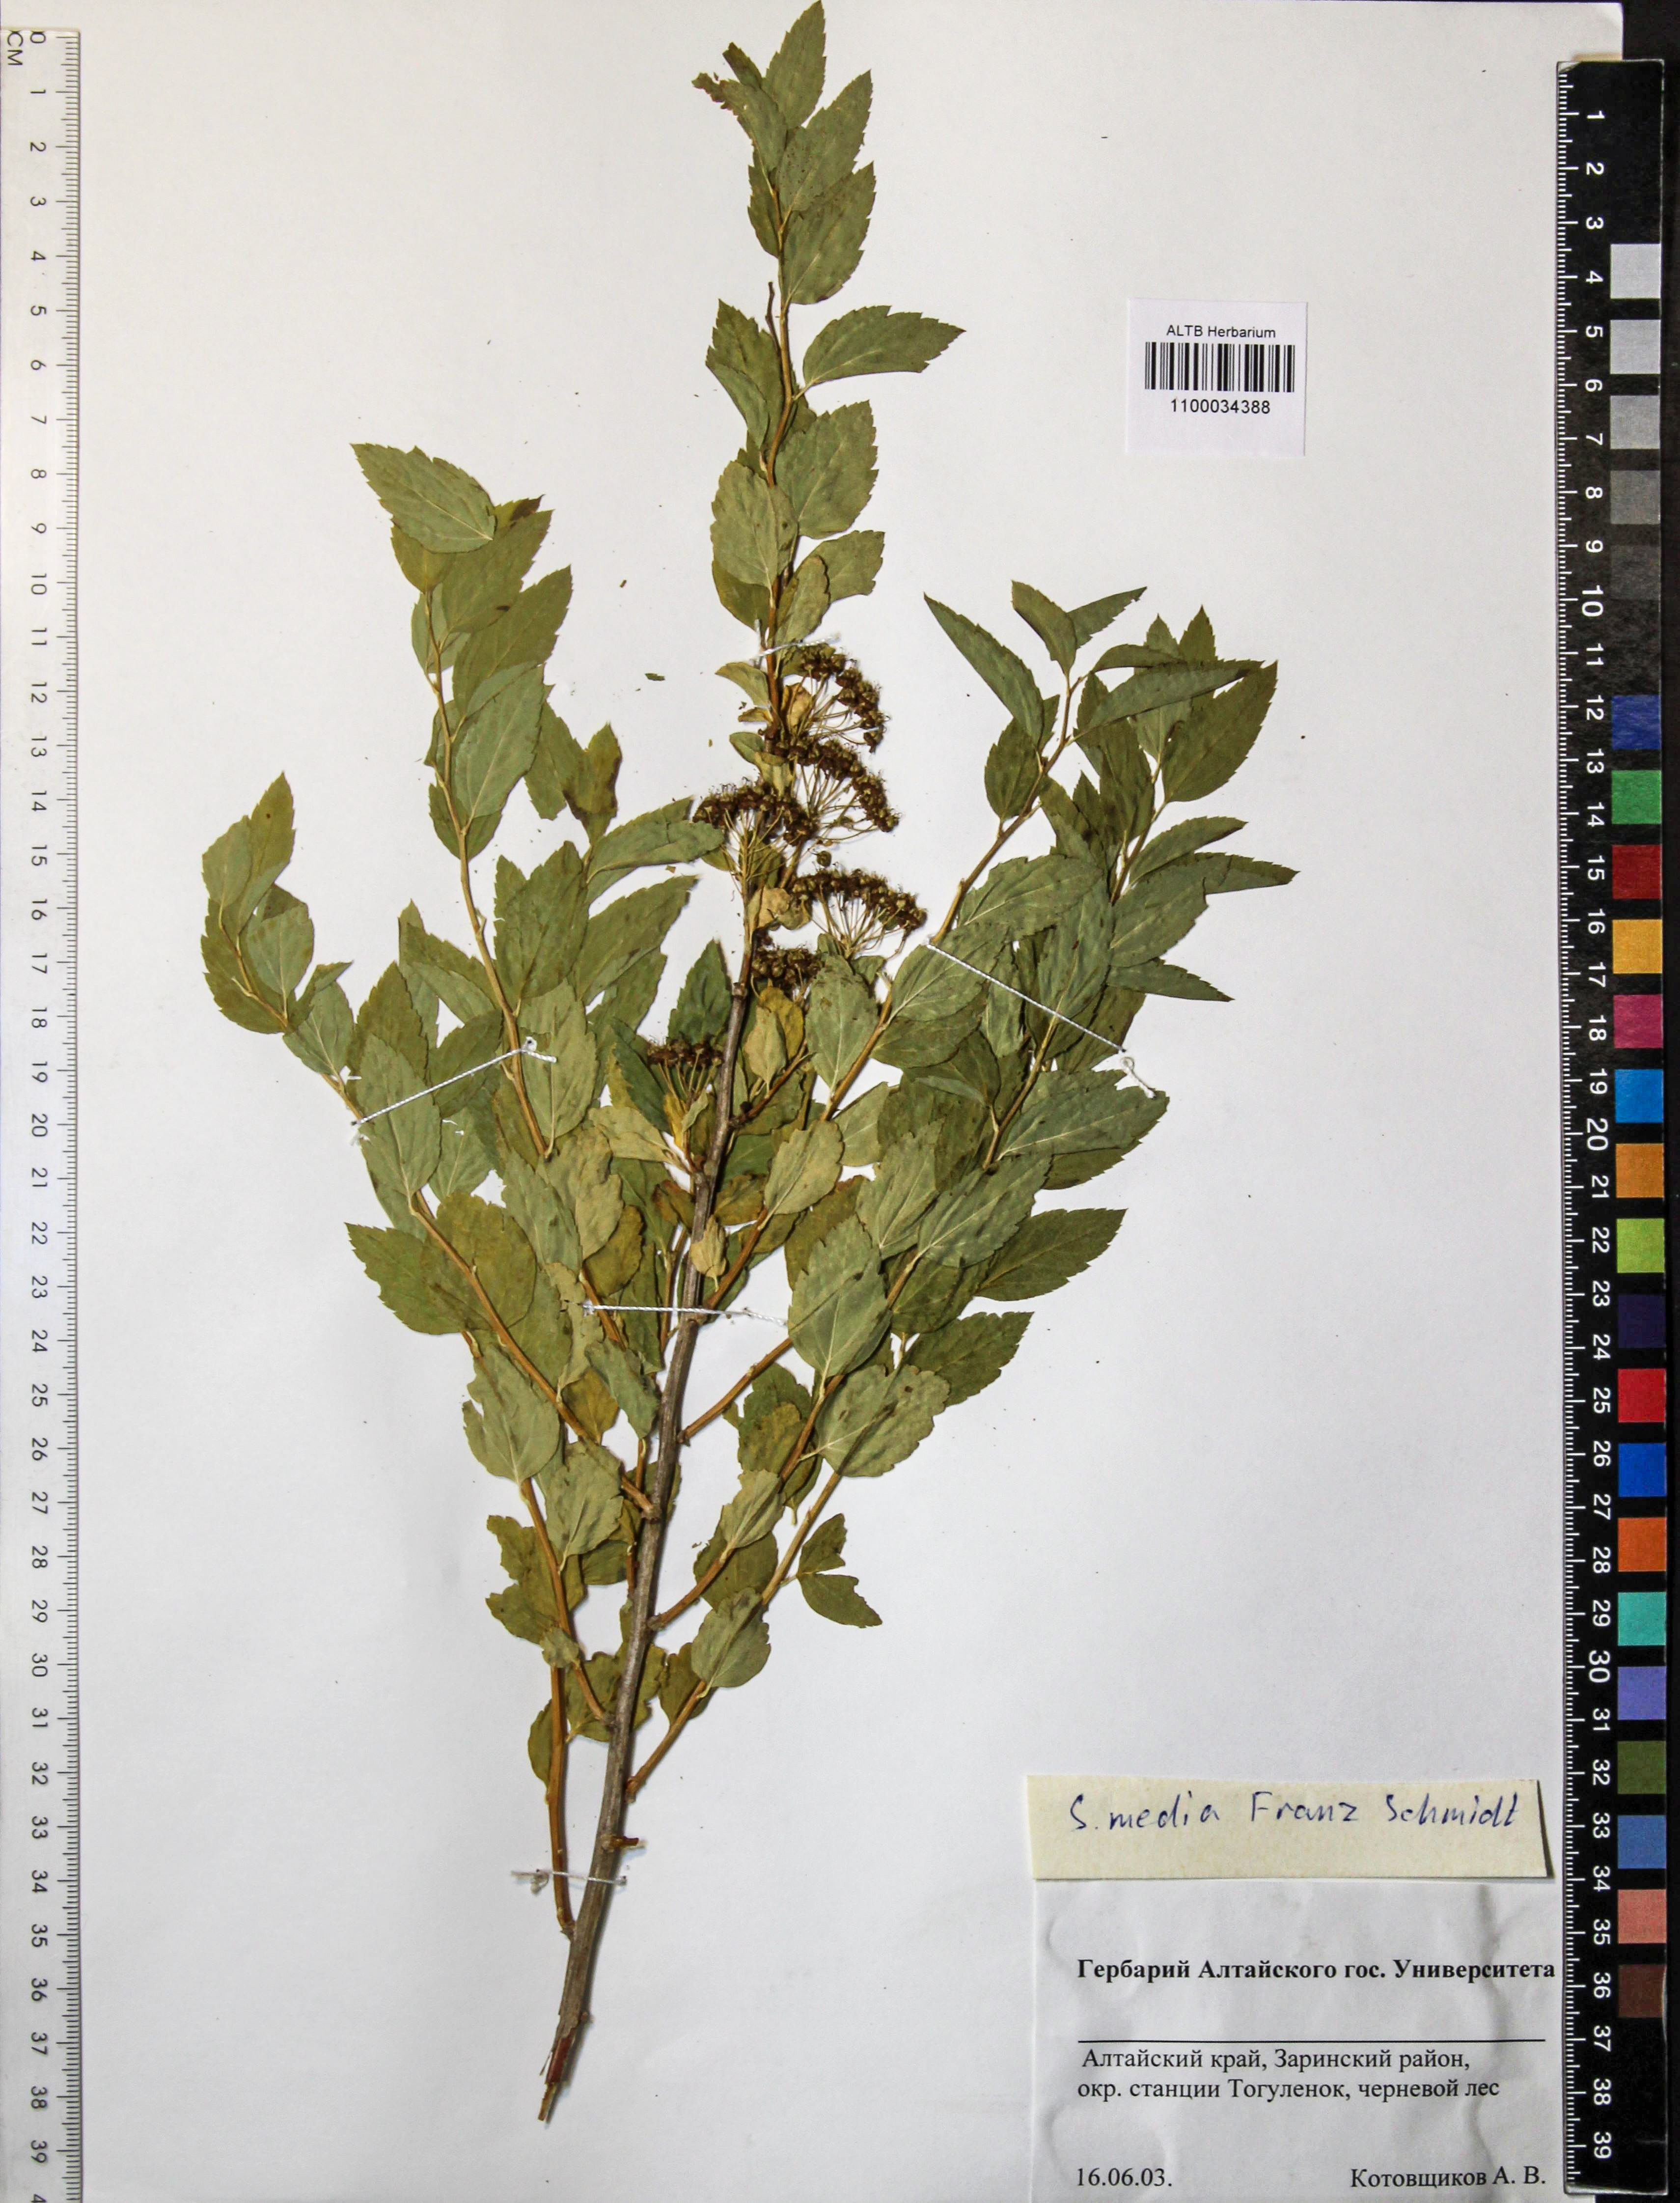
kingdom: Plantae
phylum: Tracheophyta
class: Magnoliopsida
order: Rosales
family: Rosaceae
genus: Spiraea
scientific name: Spiraea media
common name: Russian spiraea
